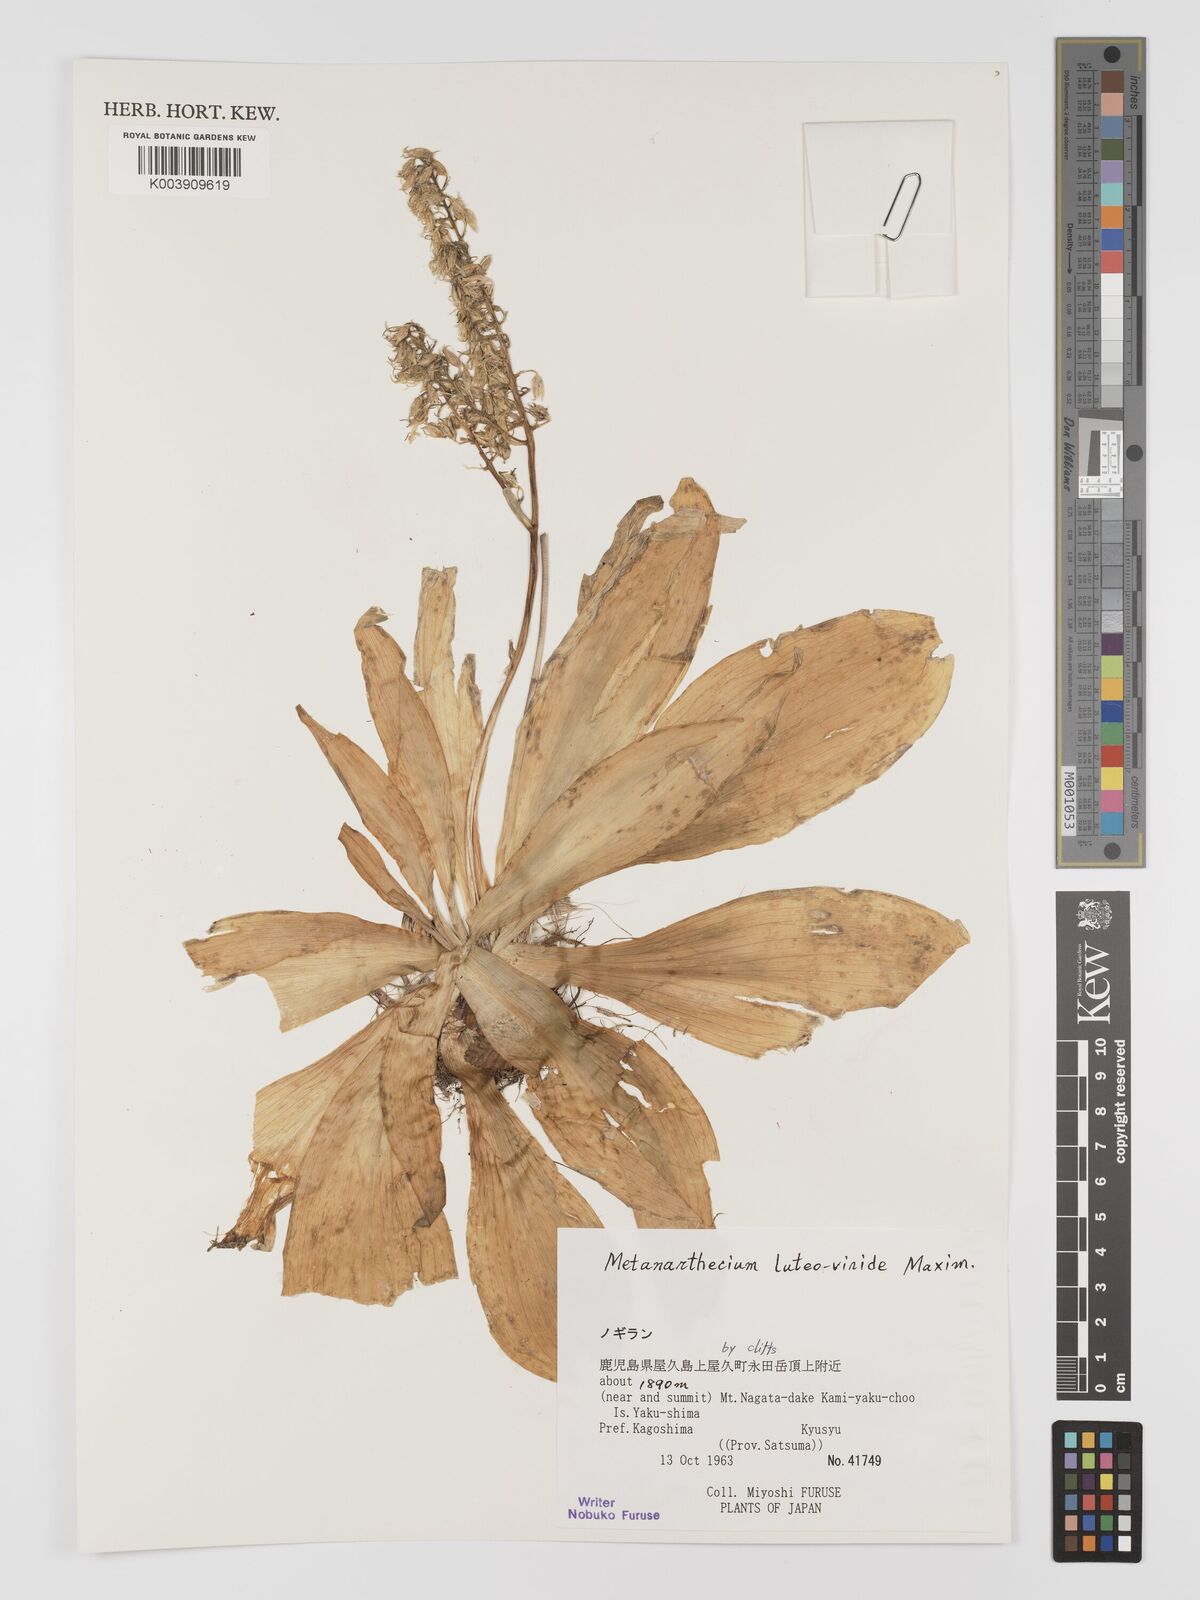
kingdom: Plantae
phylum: Tracheophyta
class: Liliopsida
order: Dioscoreales
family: Nartheciaceae
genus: Metanarthecium
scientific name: Metanarthecium luteoviride
